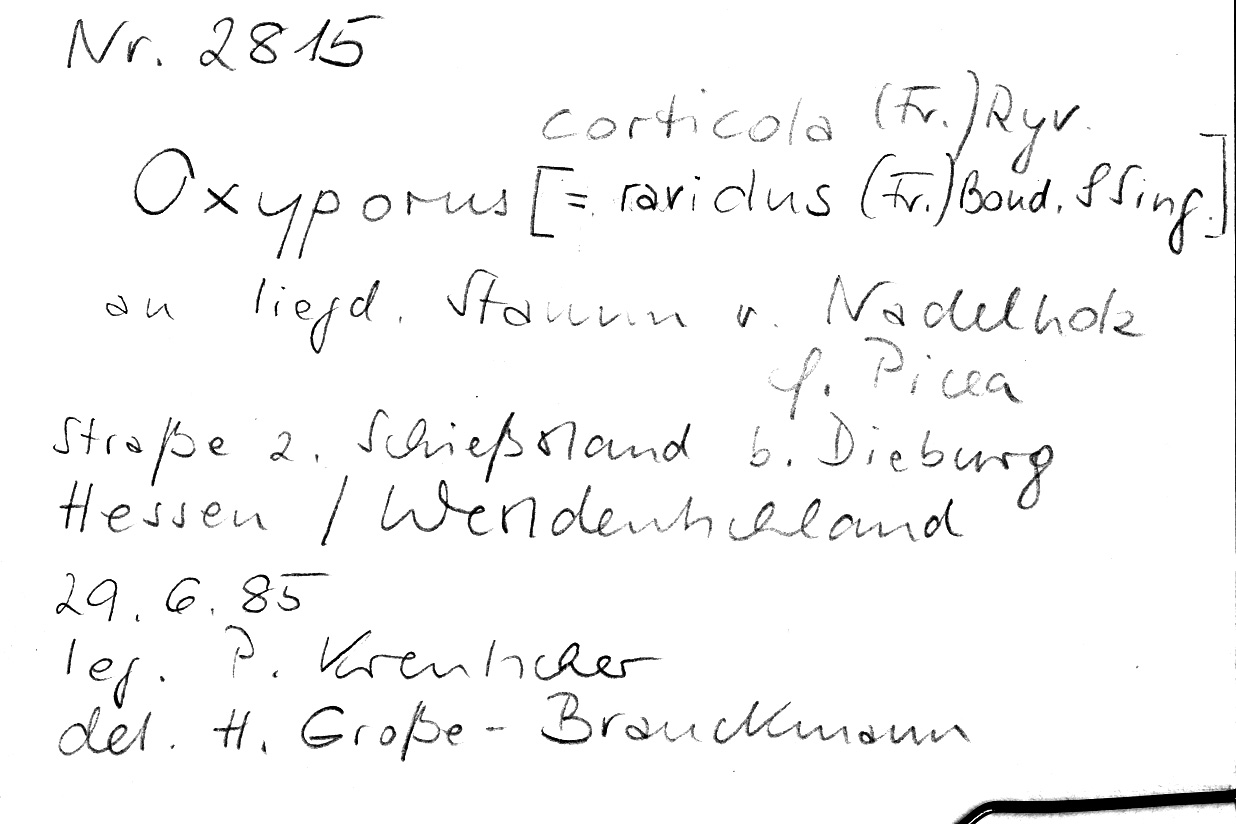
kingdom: Fungi
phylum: Basidiomycota
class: Agaricomycetes
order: Hymenochaetales
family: Oxyporaceae
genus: Oxyporus
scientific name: Oxyporus corticola
